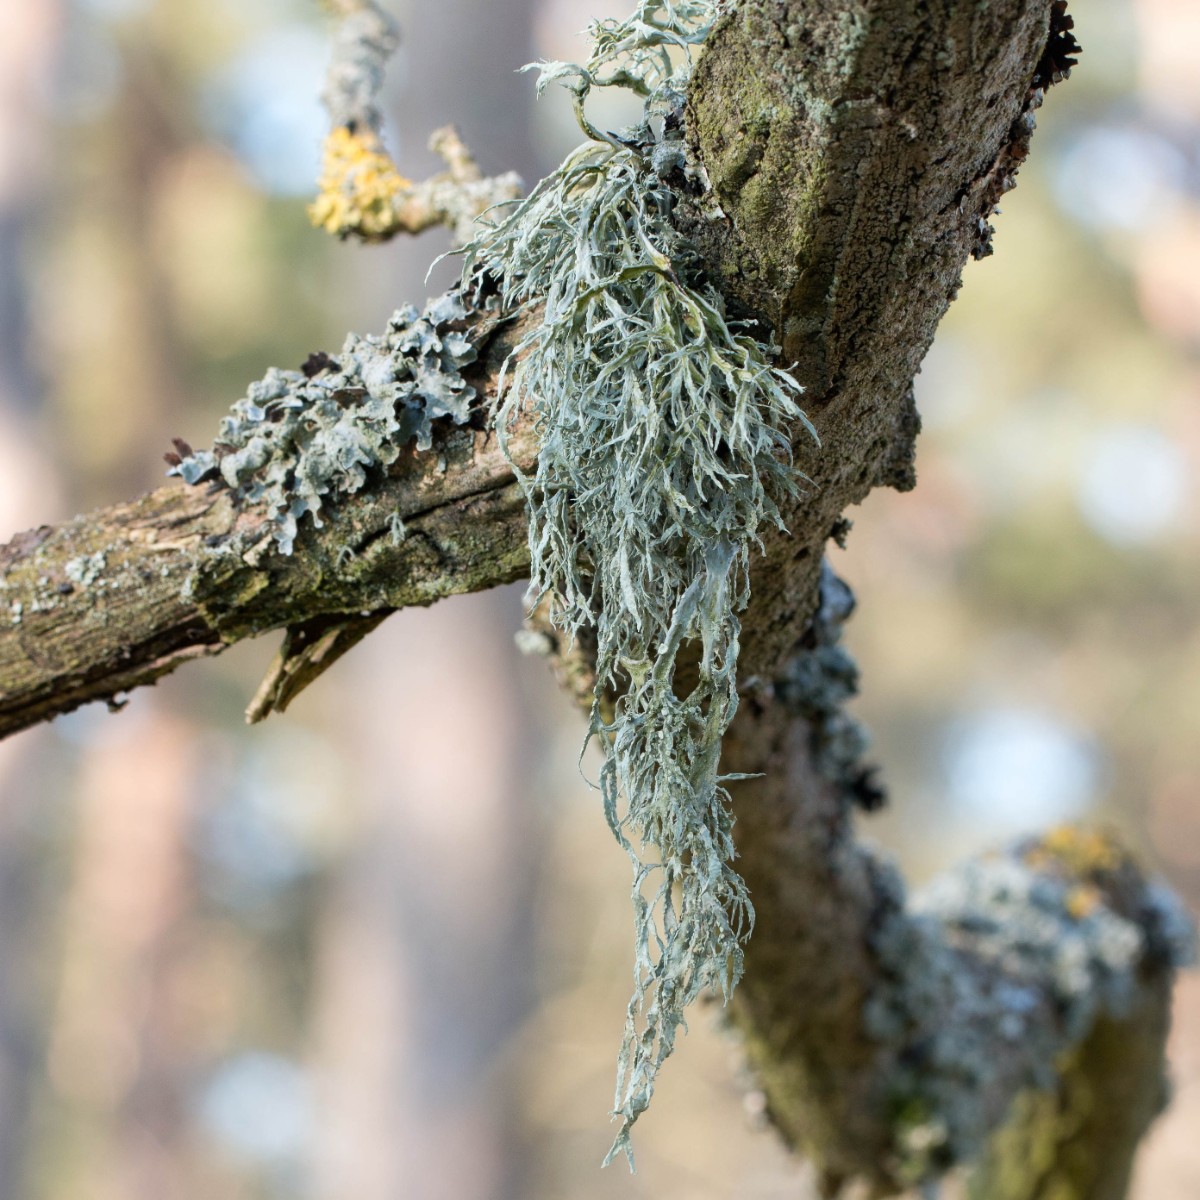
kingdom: Fungi
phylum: Ascomycota
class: Lecanoromycetes
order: Lecanorales
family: Ramalinaceae
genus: Ramalina
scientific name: Ramalina farinacea
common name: melet grenlav
